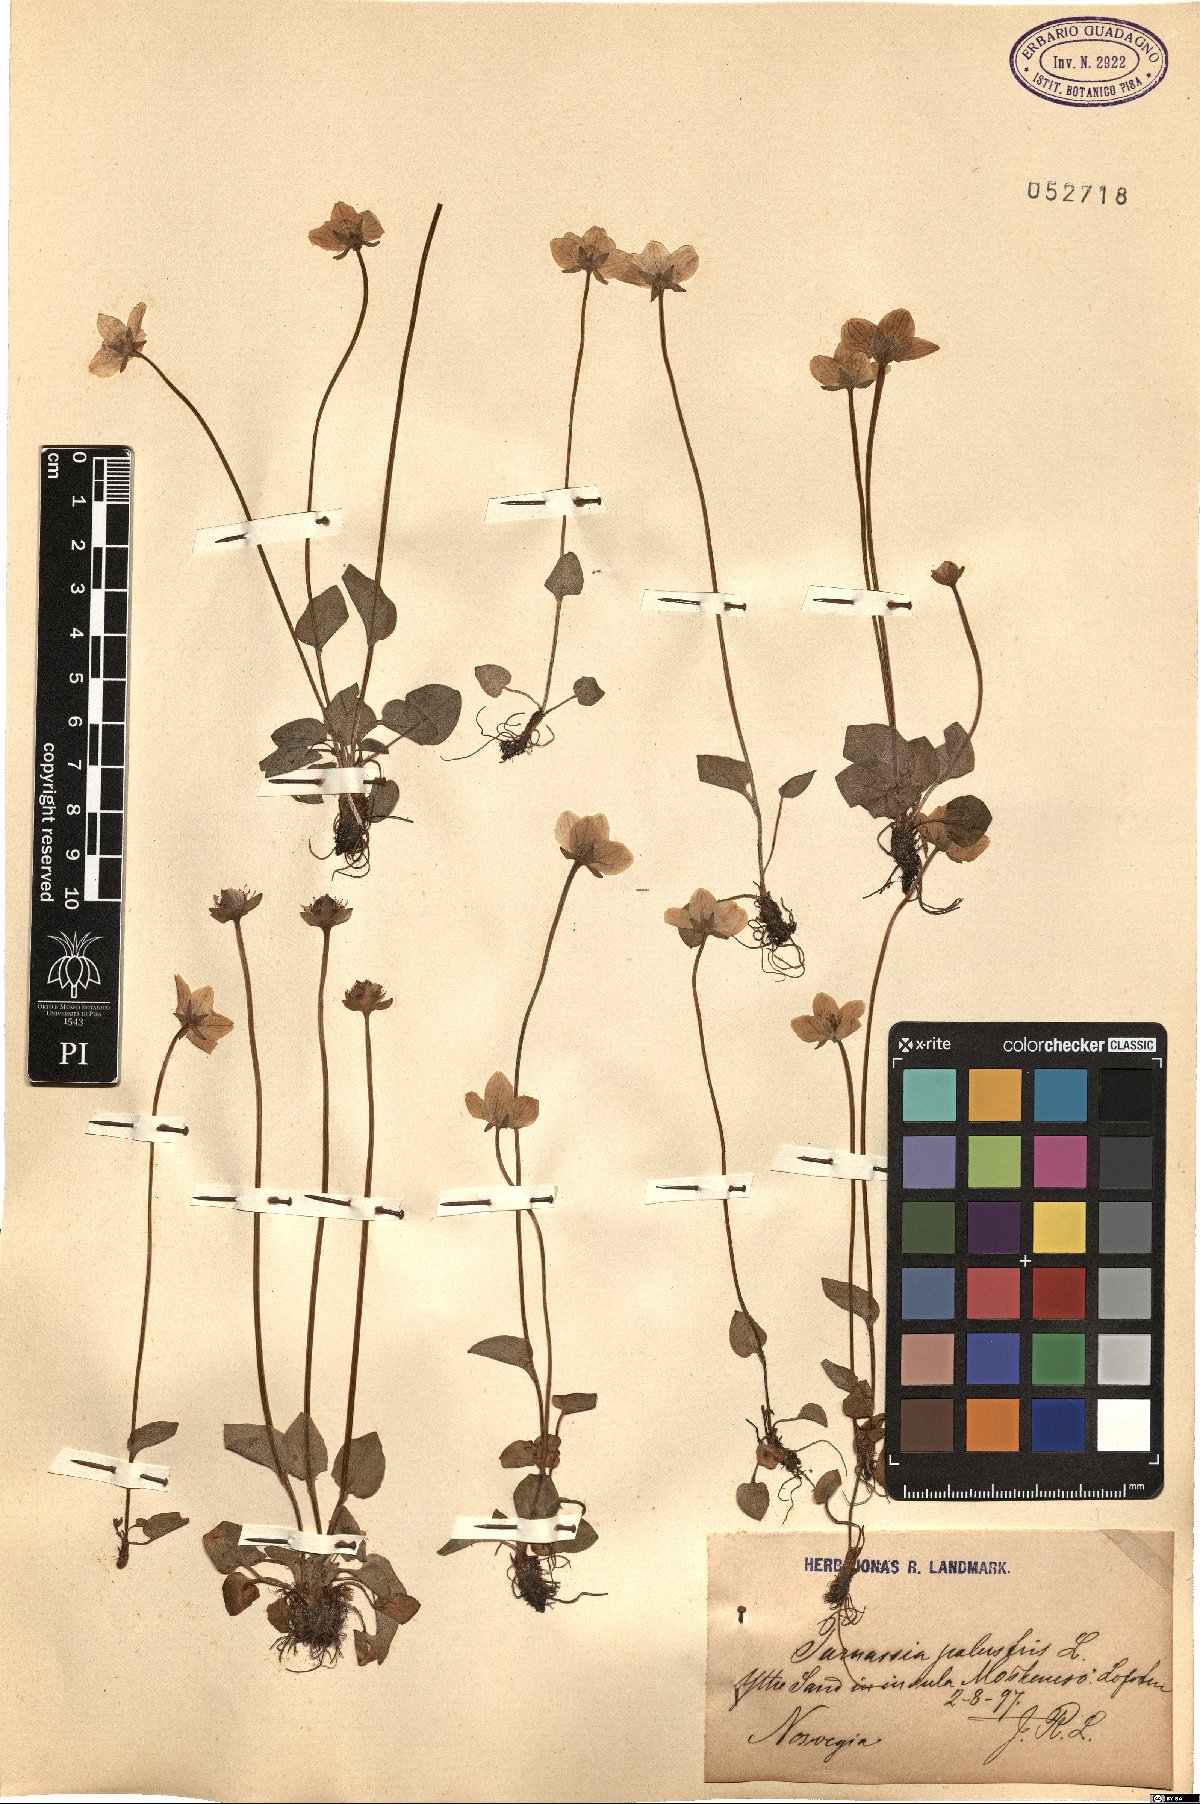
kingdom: Plantae
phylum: Tracheophyta
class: Magnoliopsida
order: Celastrales
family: Parnassiaceae
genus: Parnassia
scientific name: Parnassia palustris
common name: Grass-of-parnassus
